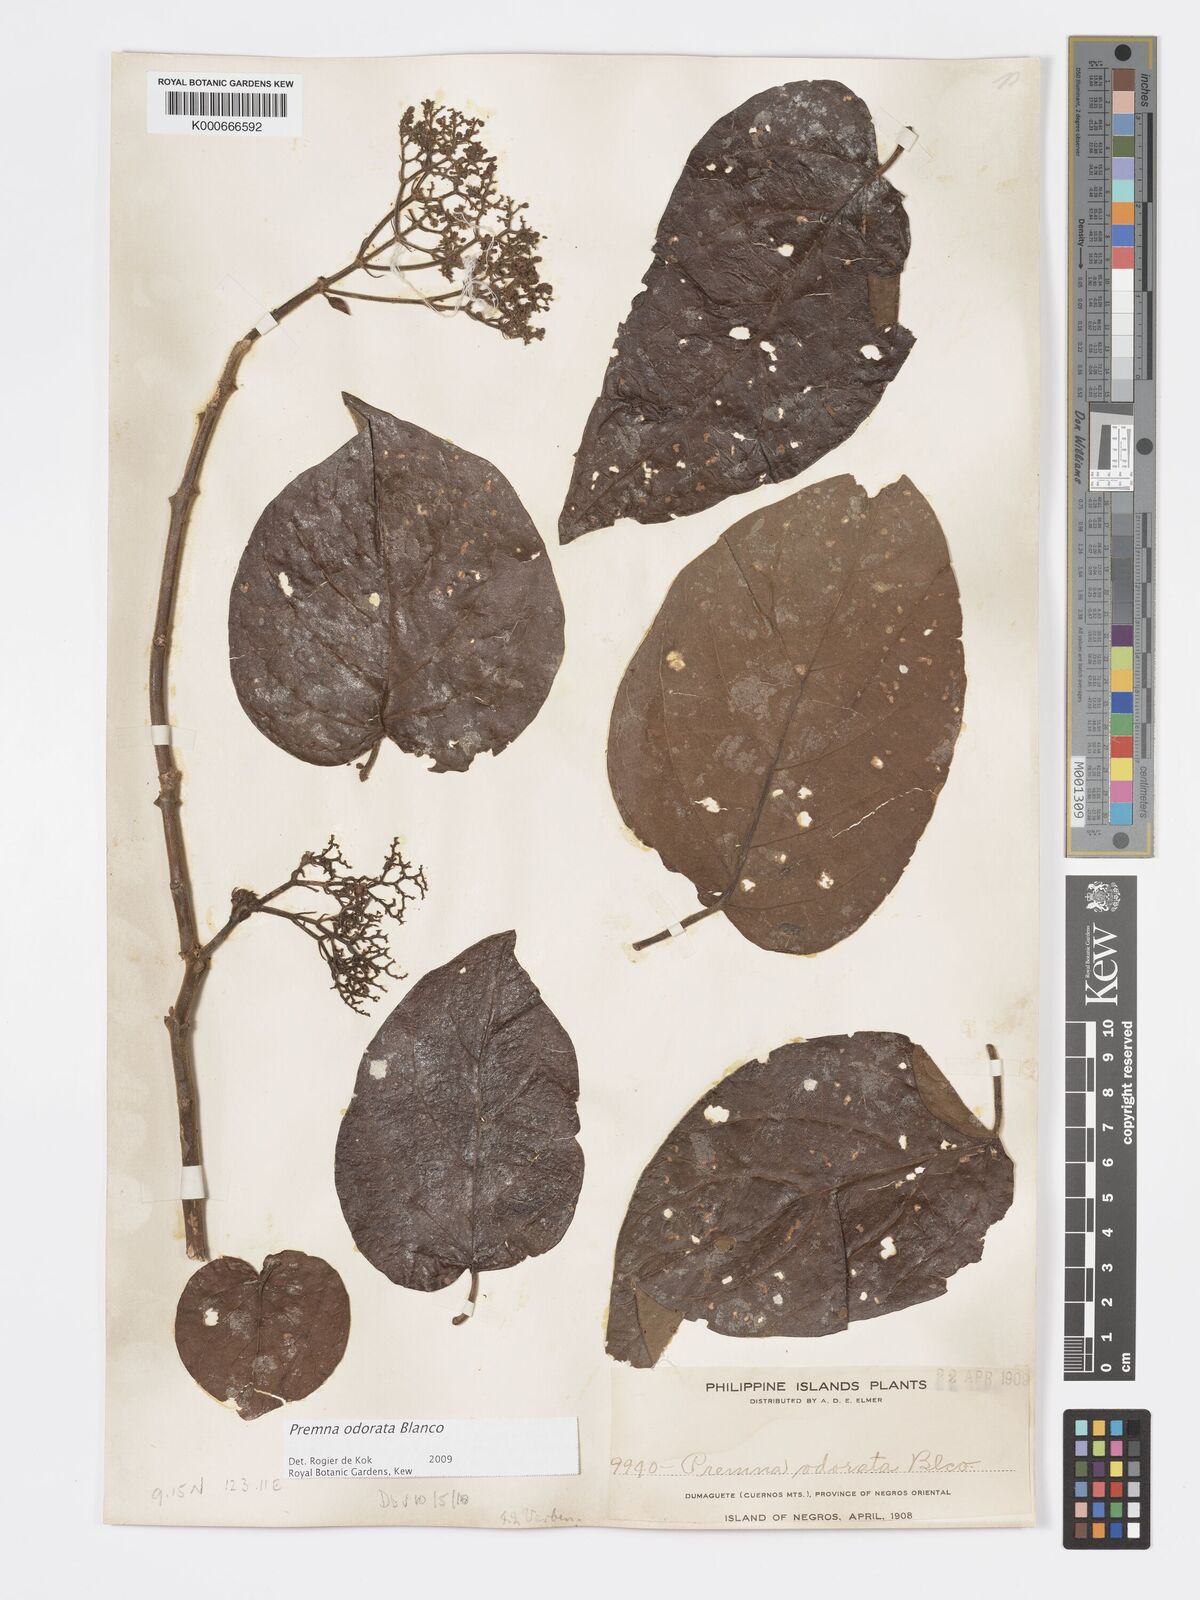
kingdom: Plantae
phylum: Tracheophyta
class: Magnoliopsida
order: Lamiales
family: Lamiaceae
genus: Premna
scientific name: Premna odorata
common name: Fragrant premna
